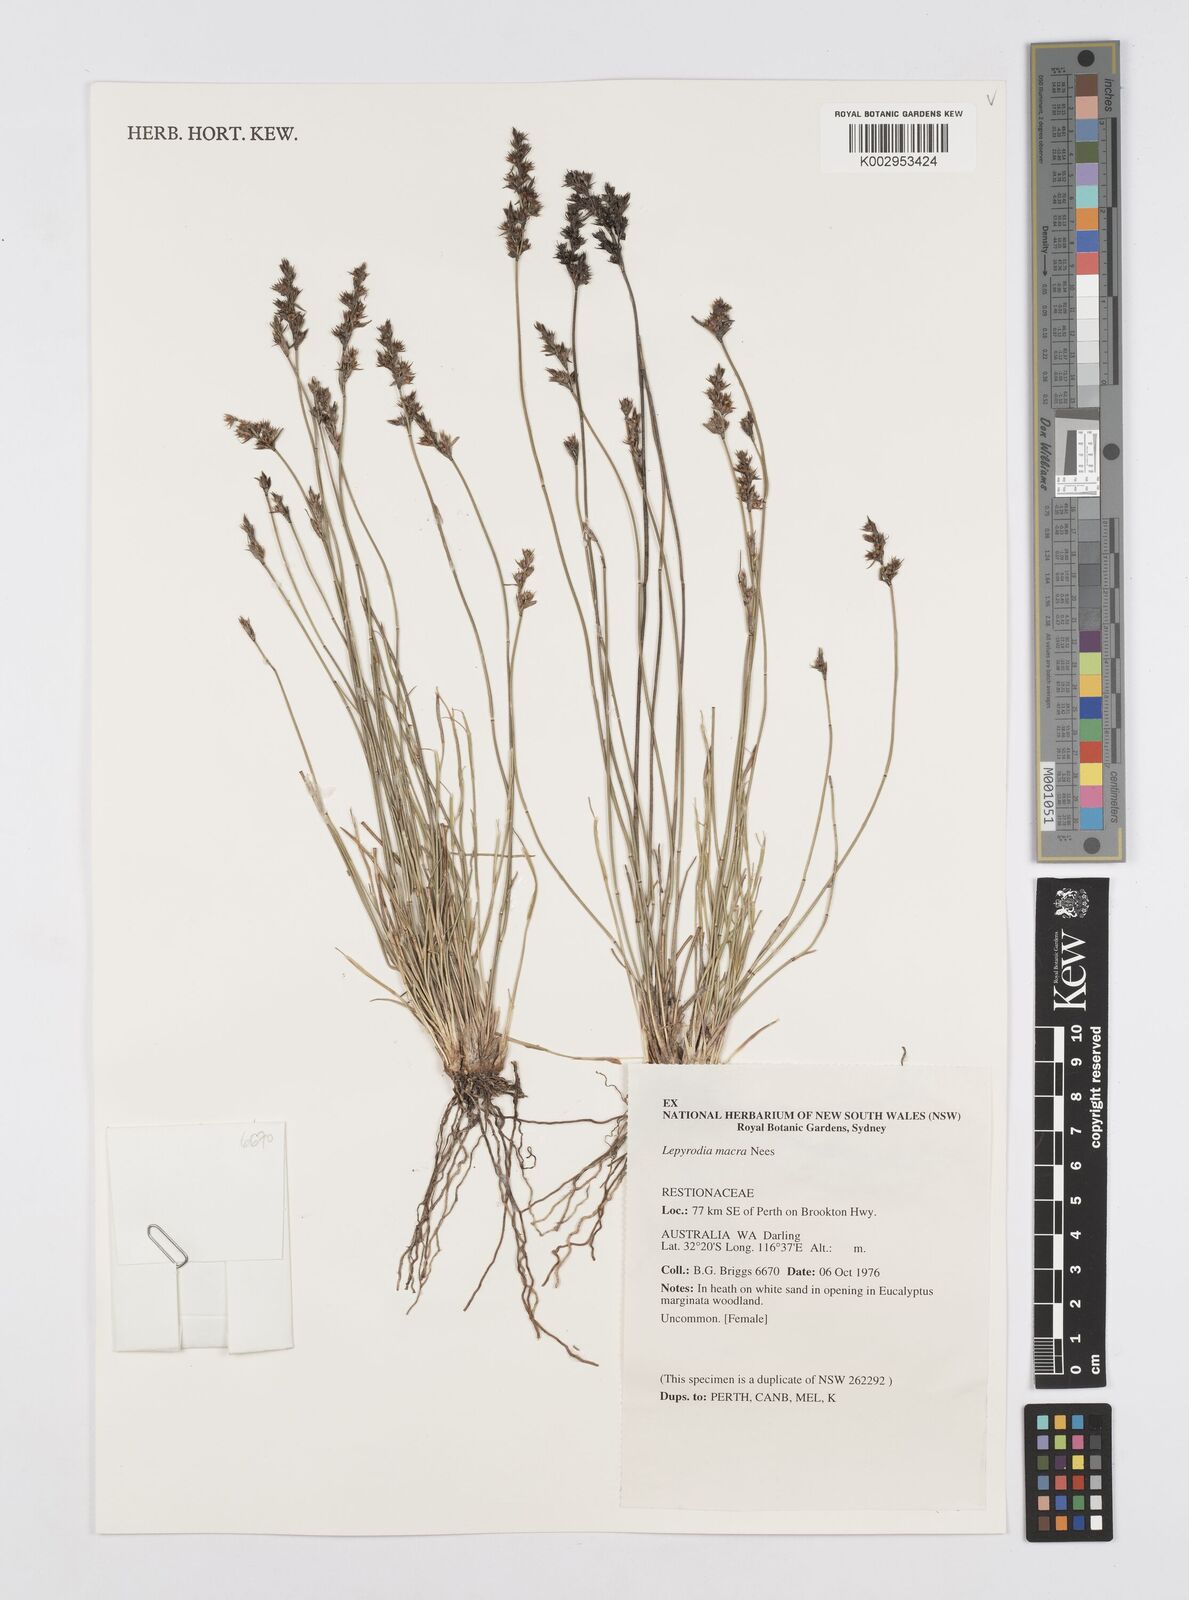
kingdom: Plantae
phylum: Tracheophyta
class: Liliopsida
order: Poales
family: Restionaceae
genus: Lepyrodia
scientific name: Lepyrodia macra
